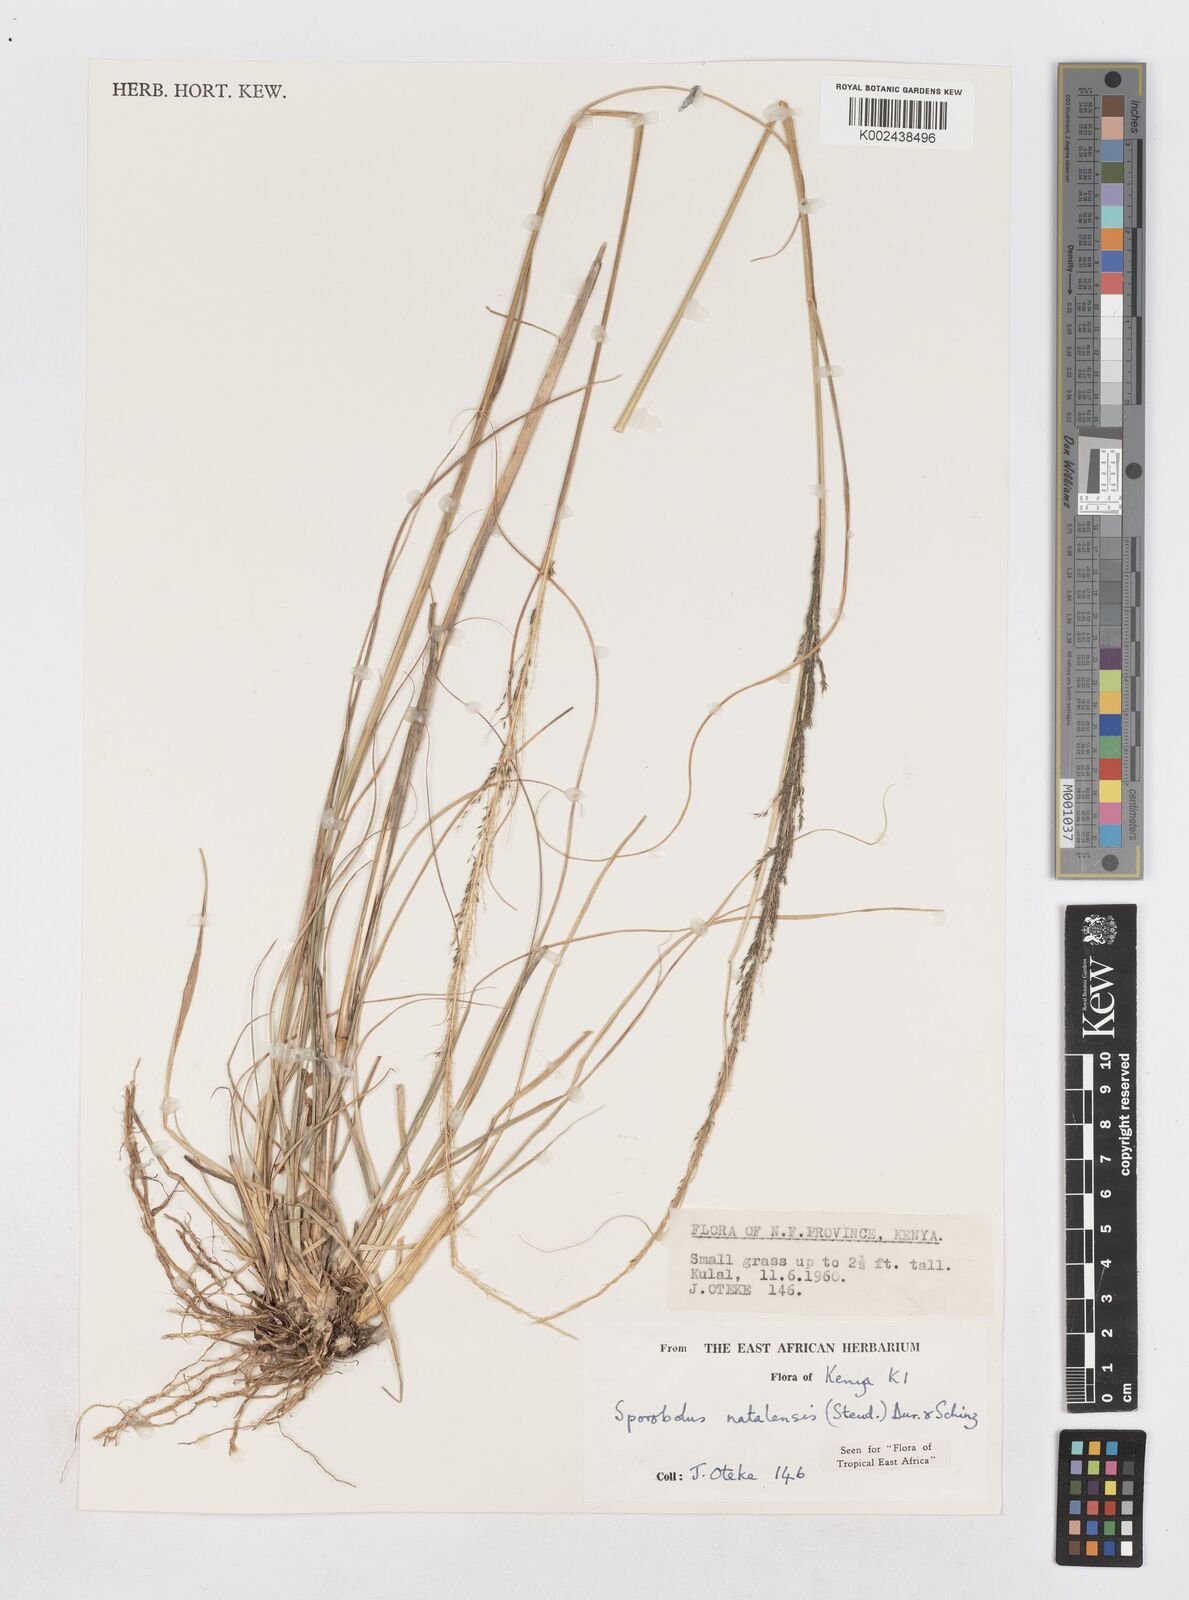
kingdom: Plantae
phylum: Tracheophyta
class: Liliopsida
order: Poales
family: Poaceae
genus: Sporobolus
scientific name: Sporobolus natalensis
